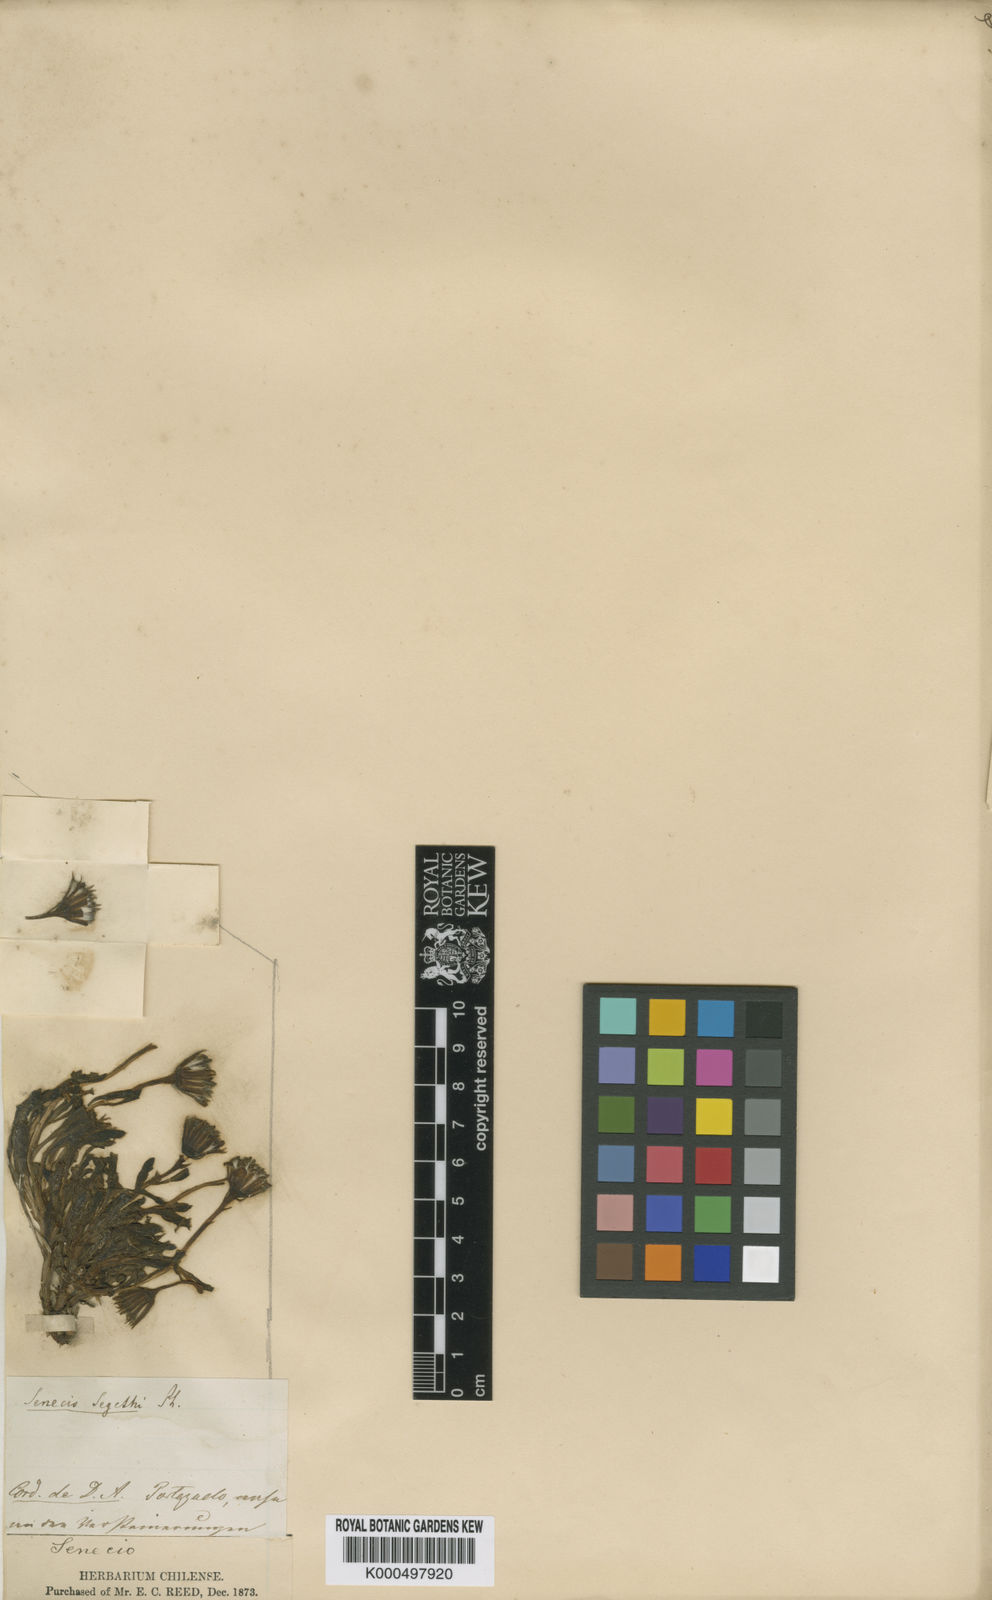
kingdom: Plantae
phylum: Tracheophyta
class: Magnoliopsida
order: Asterales
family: Asteraceae
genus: Senecio
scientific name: Senecio segethi
